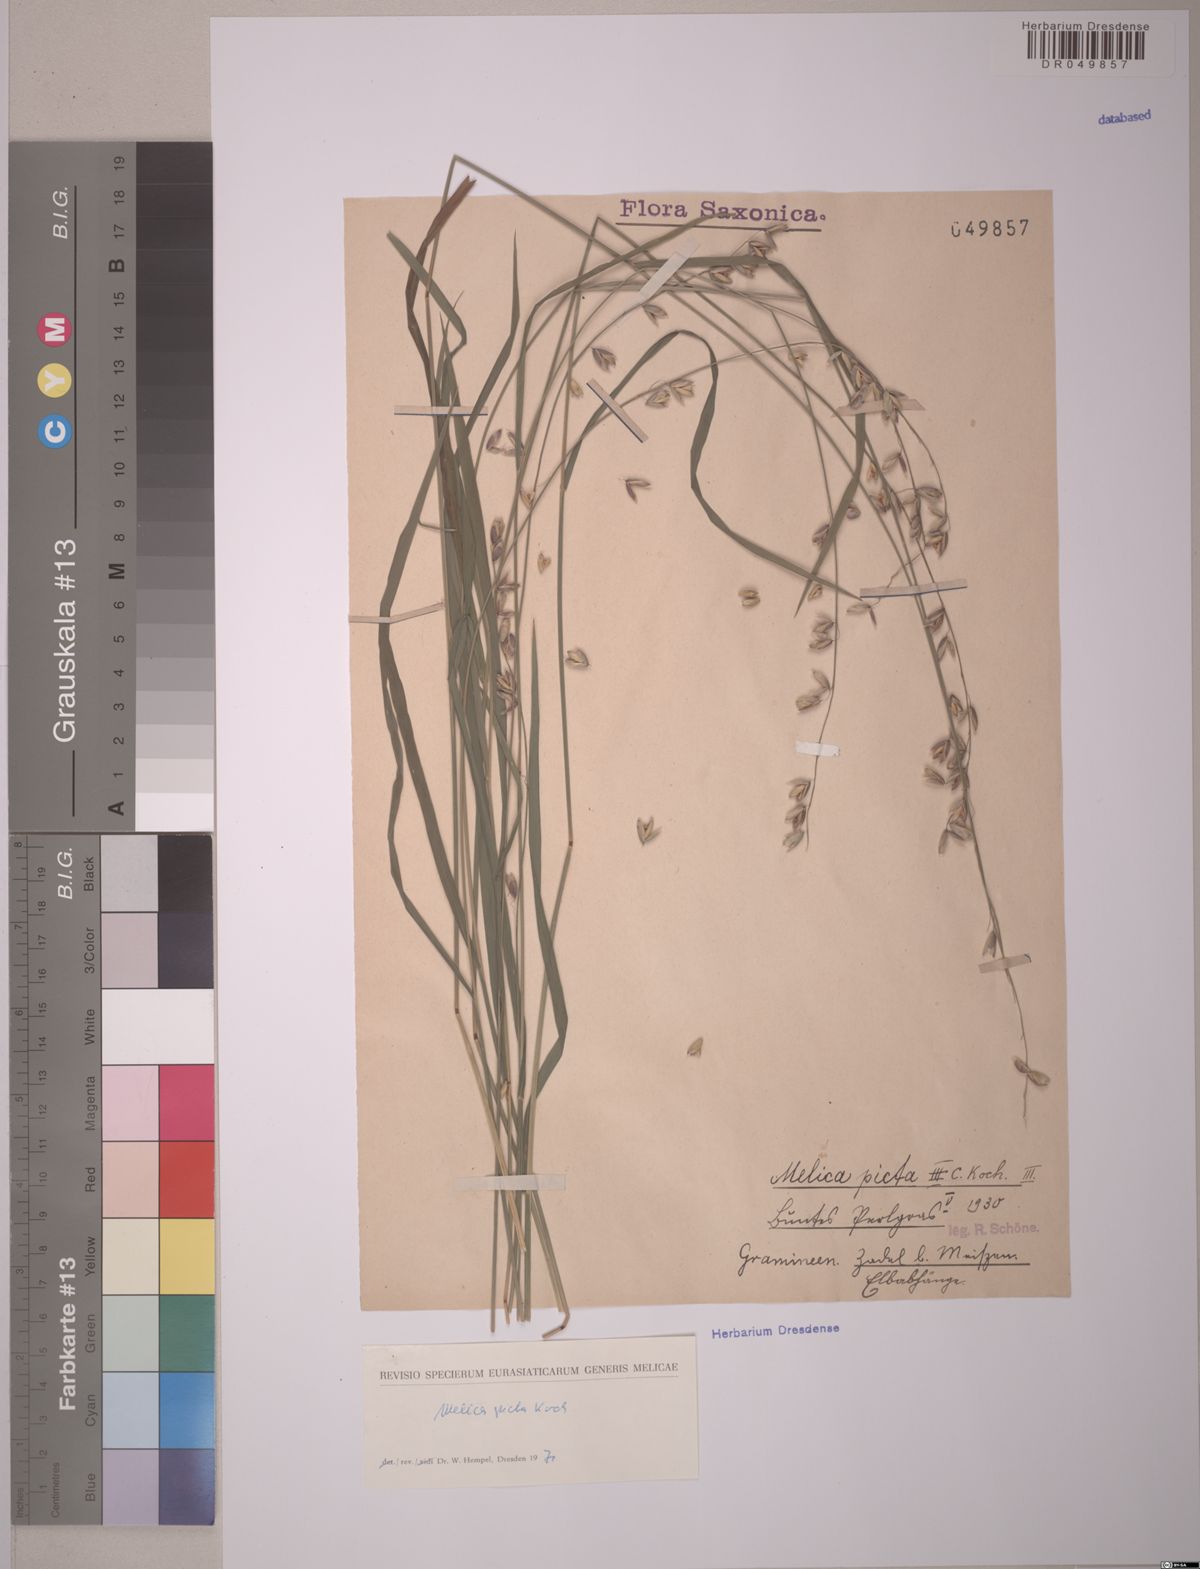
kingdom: Plantae
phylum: Tracheophyta
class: Liliopsida
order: Poales
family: Poaceae
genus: Melica
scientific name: Melica picta
